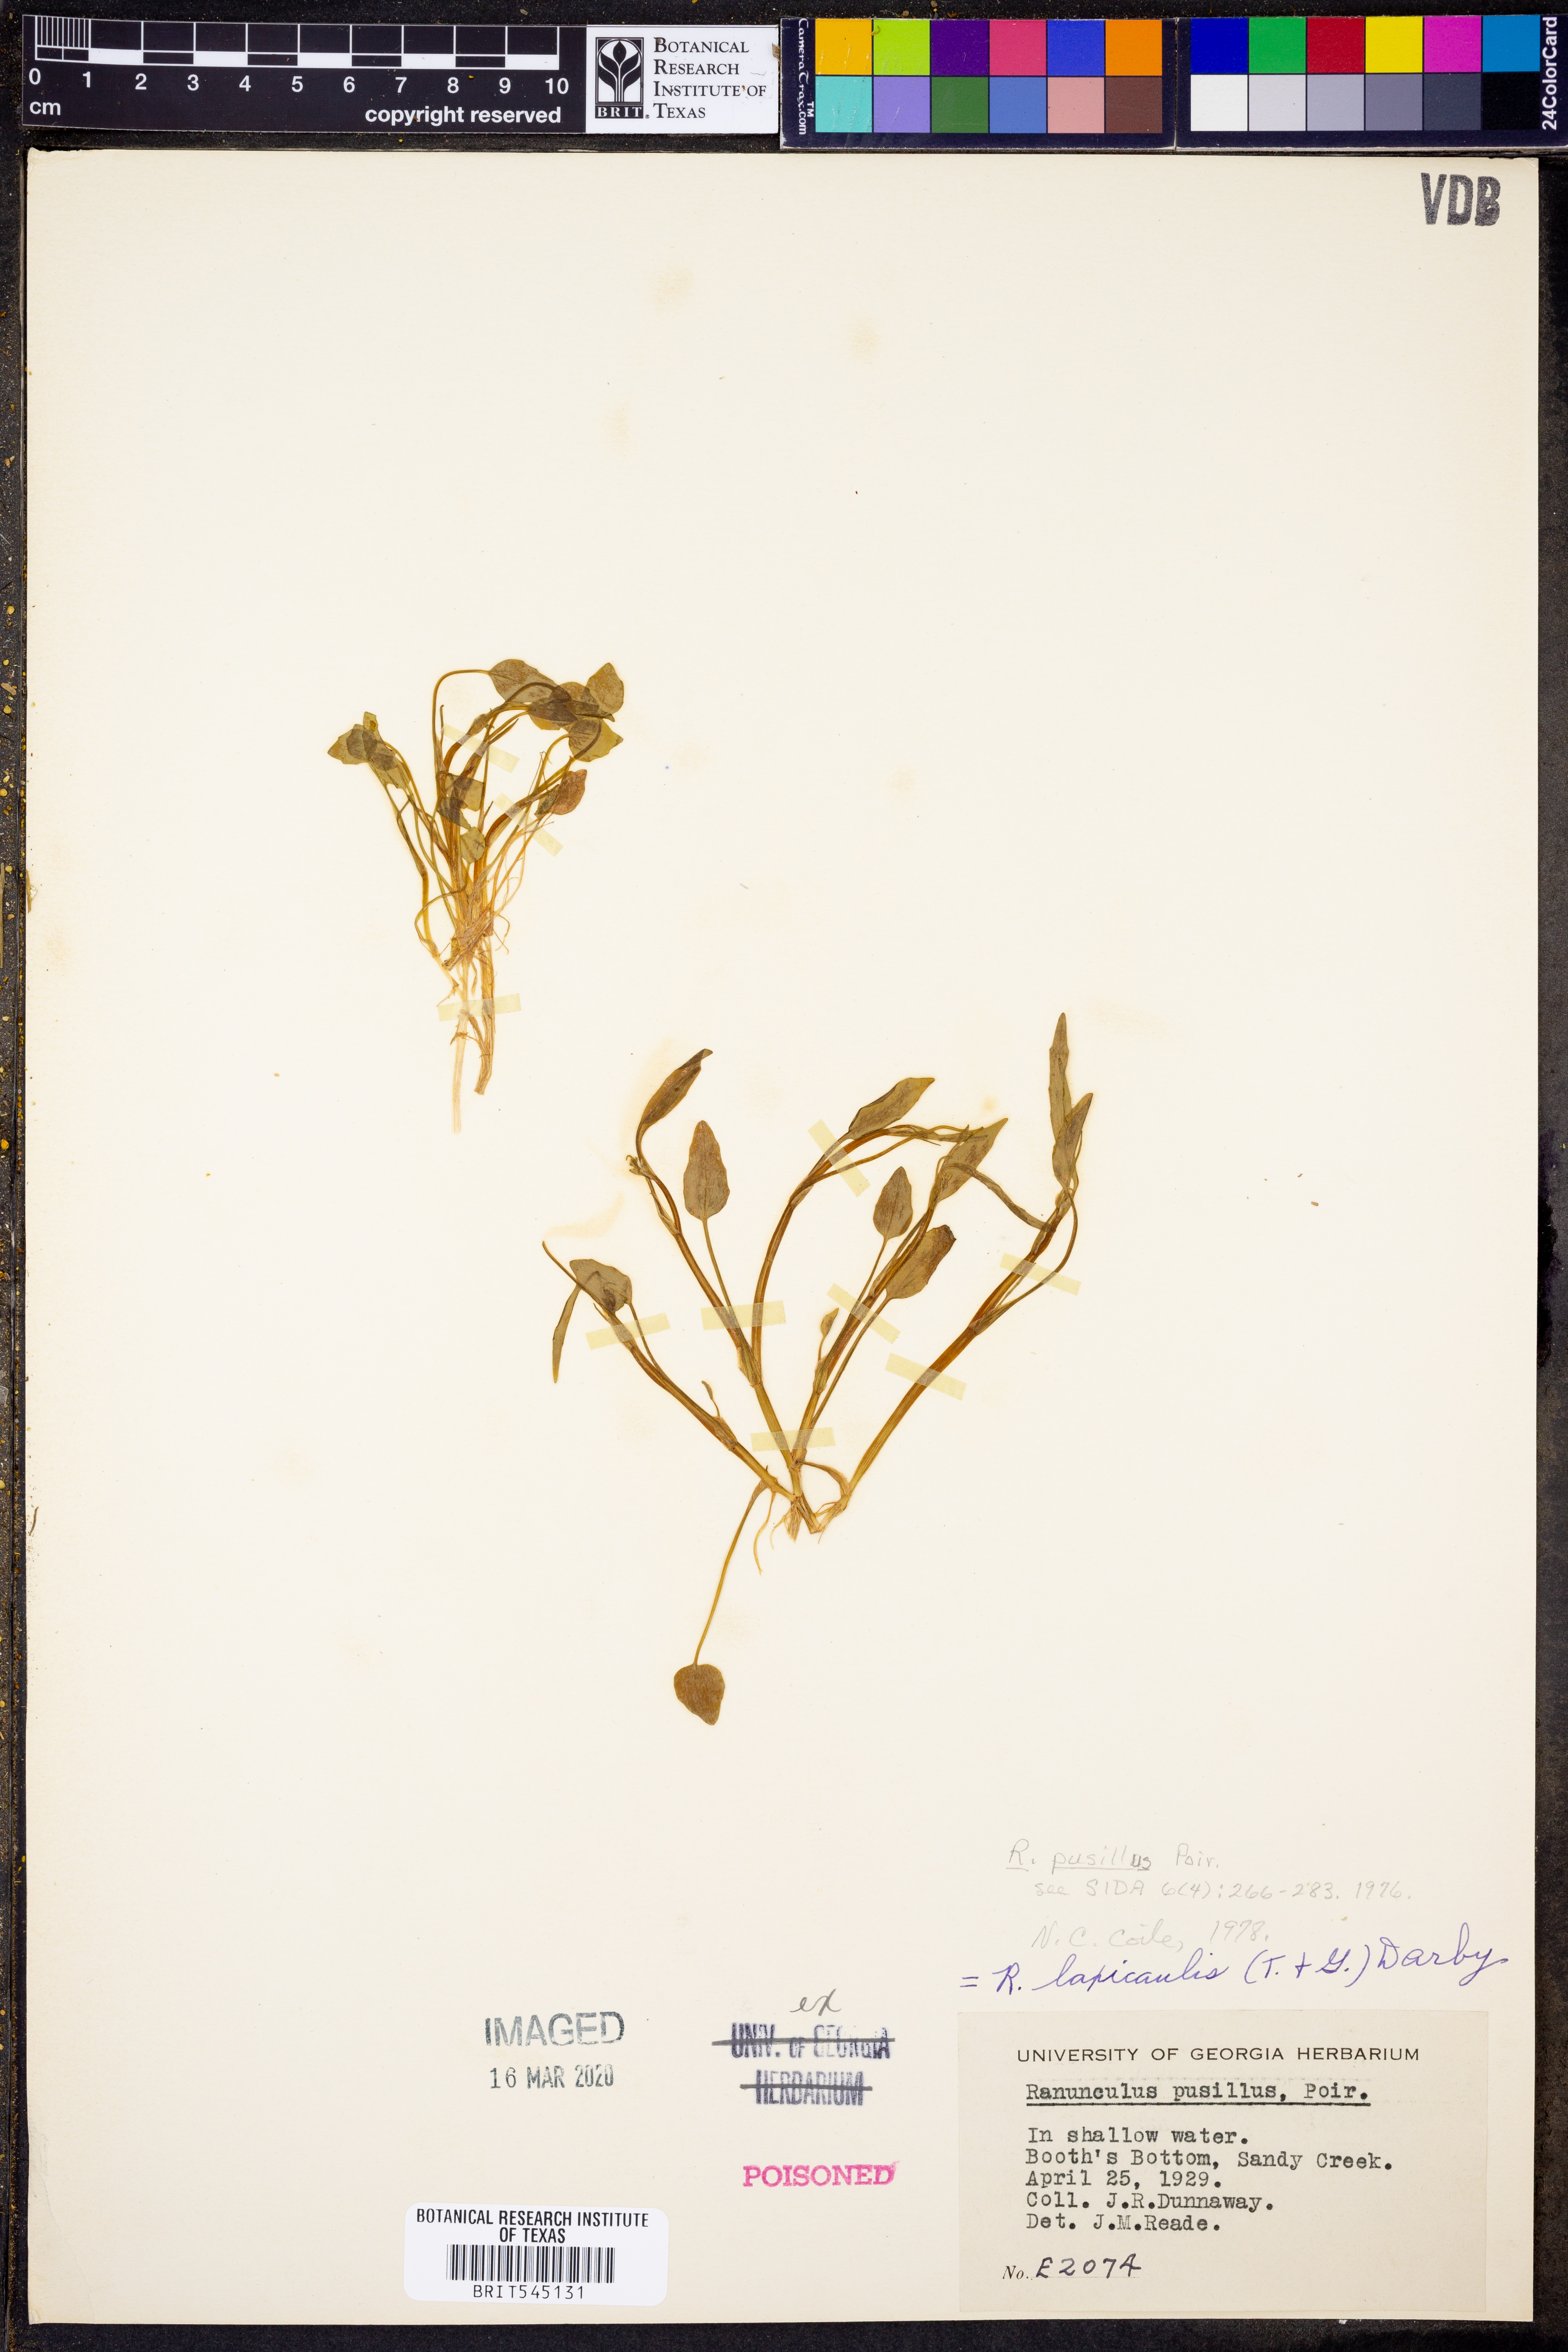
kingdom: Plantae
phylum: Tracheophyta
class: Magnoliopsida
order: Ranunculales
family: Ranunculaceae
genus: Ranunculus
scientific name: Ranunculus pusillus
